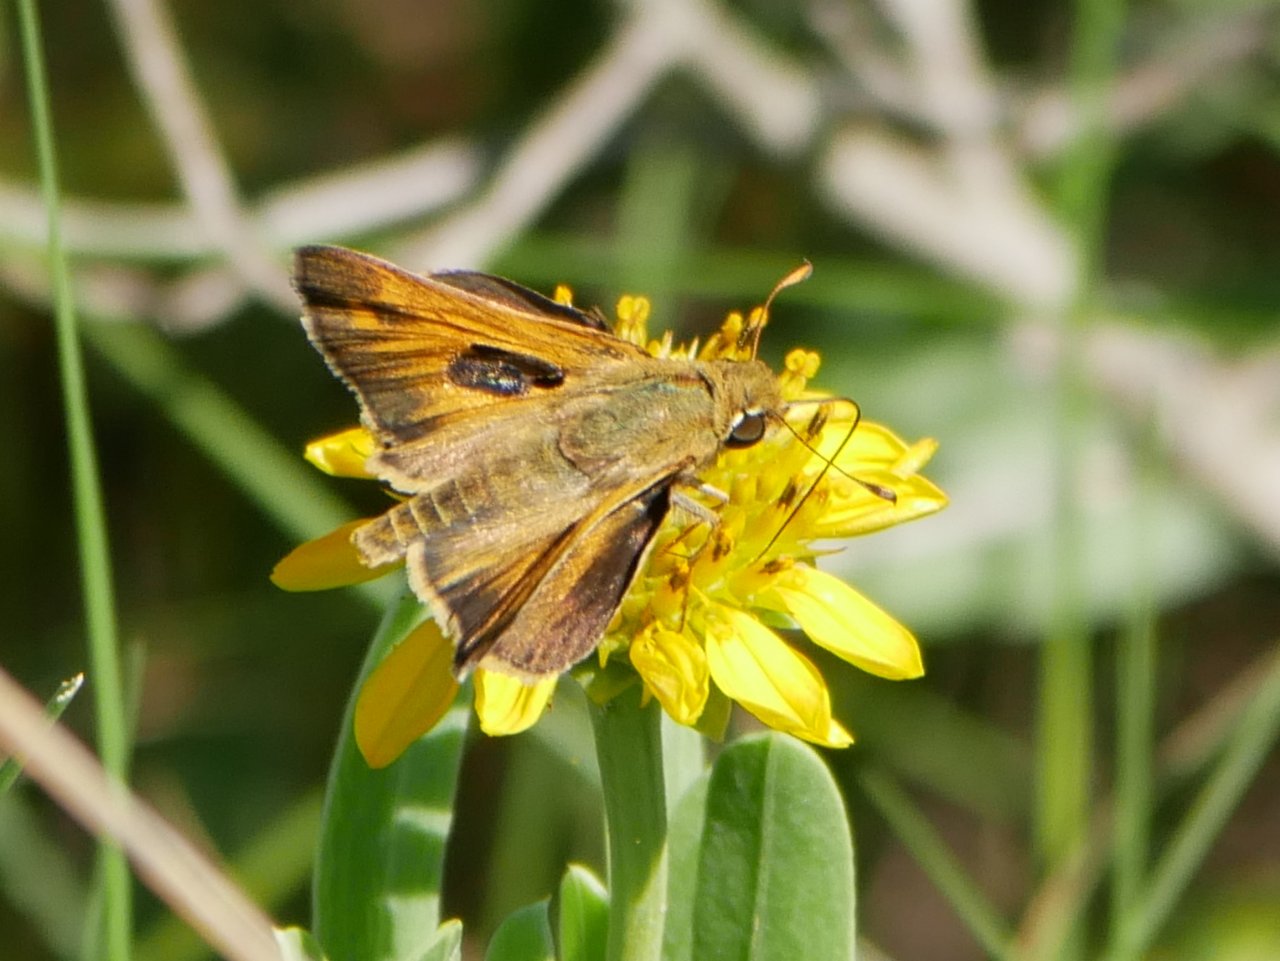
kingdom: Animalia
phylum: Arthropoda
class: Insecta
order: Lepidoptera
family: Hesperiidae
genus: Atalopedes
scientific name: Atalopedes campestris
